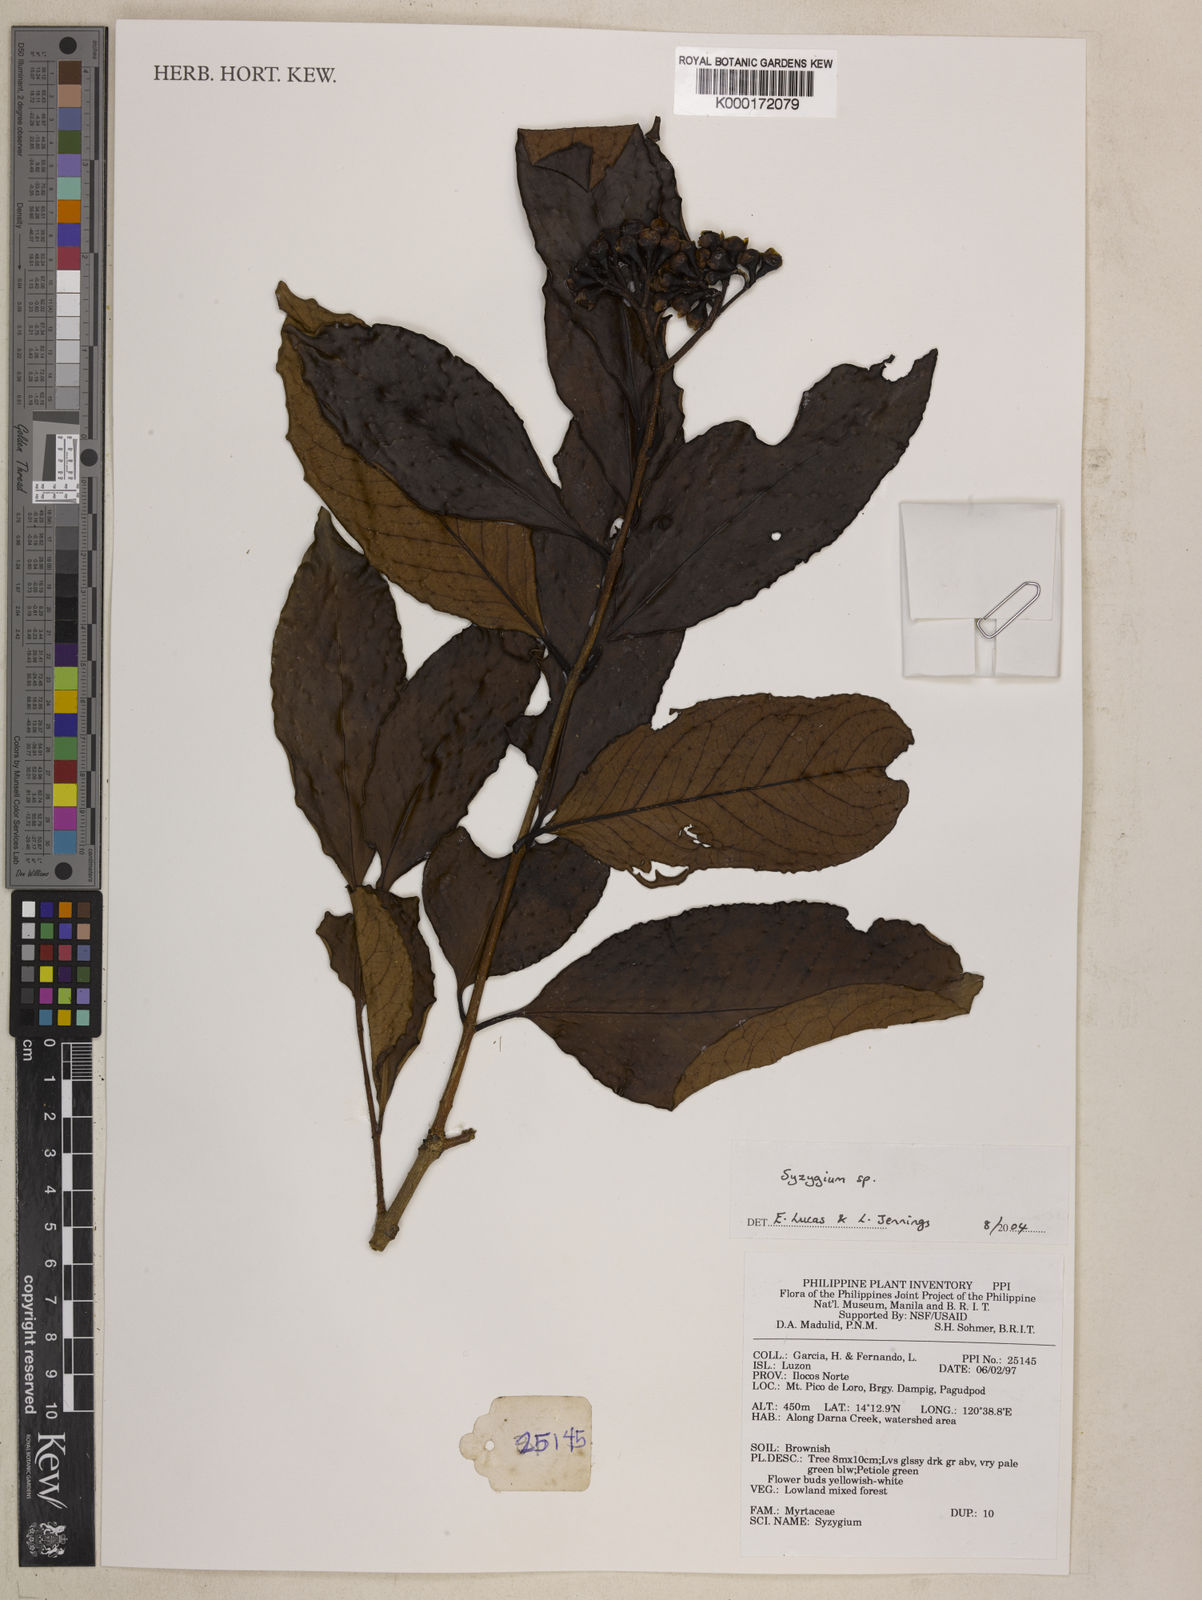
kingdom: Plantae
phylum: Tracheophyta
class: Magnoliopsida
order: Myrtales
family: Myrtaceae
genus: Syzygium
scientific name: Syzygium
